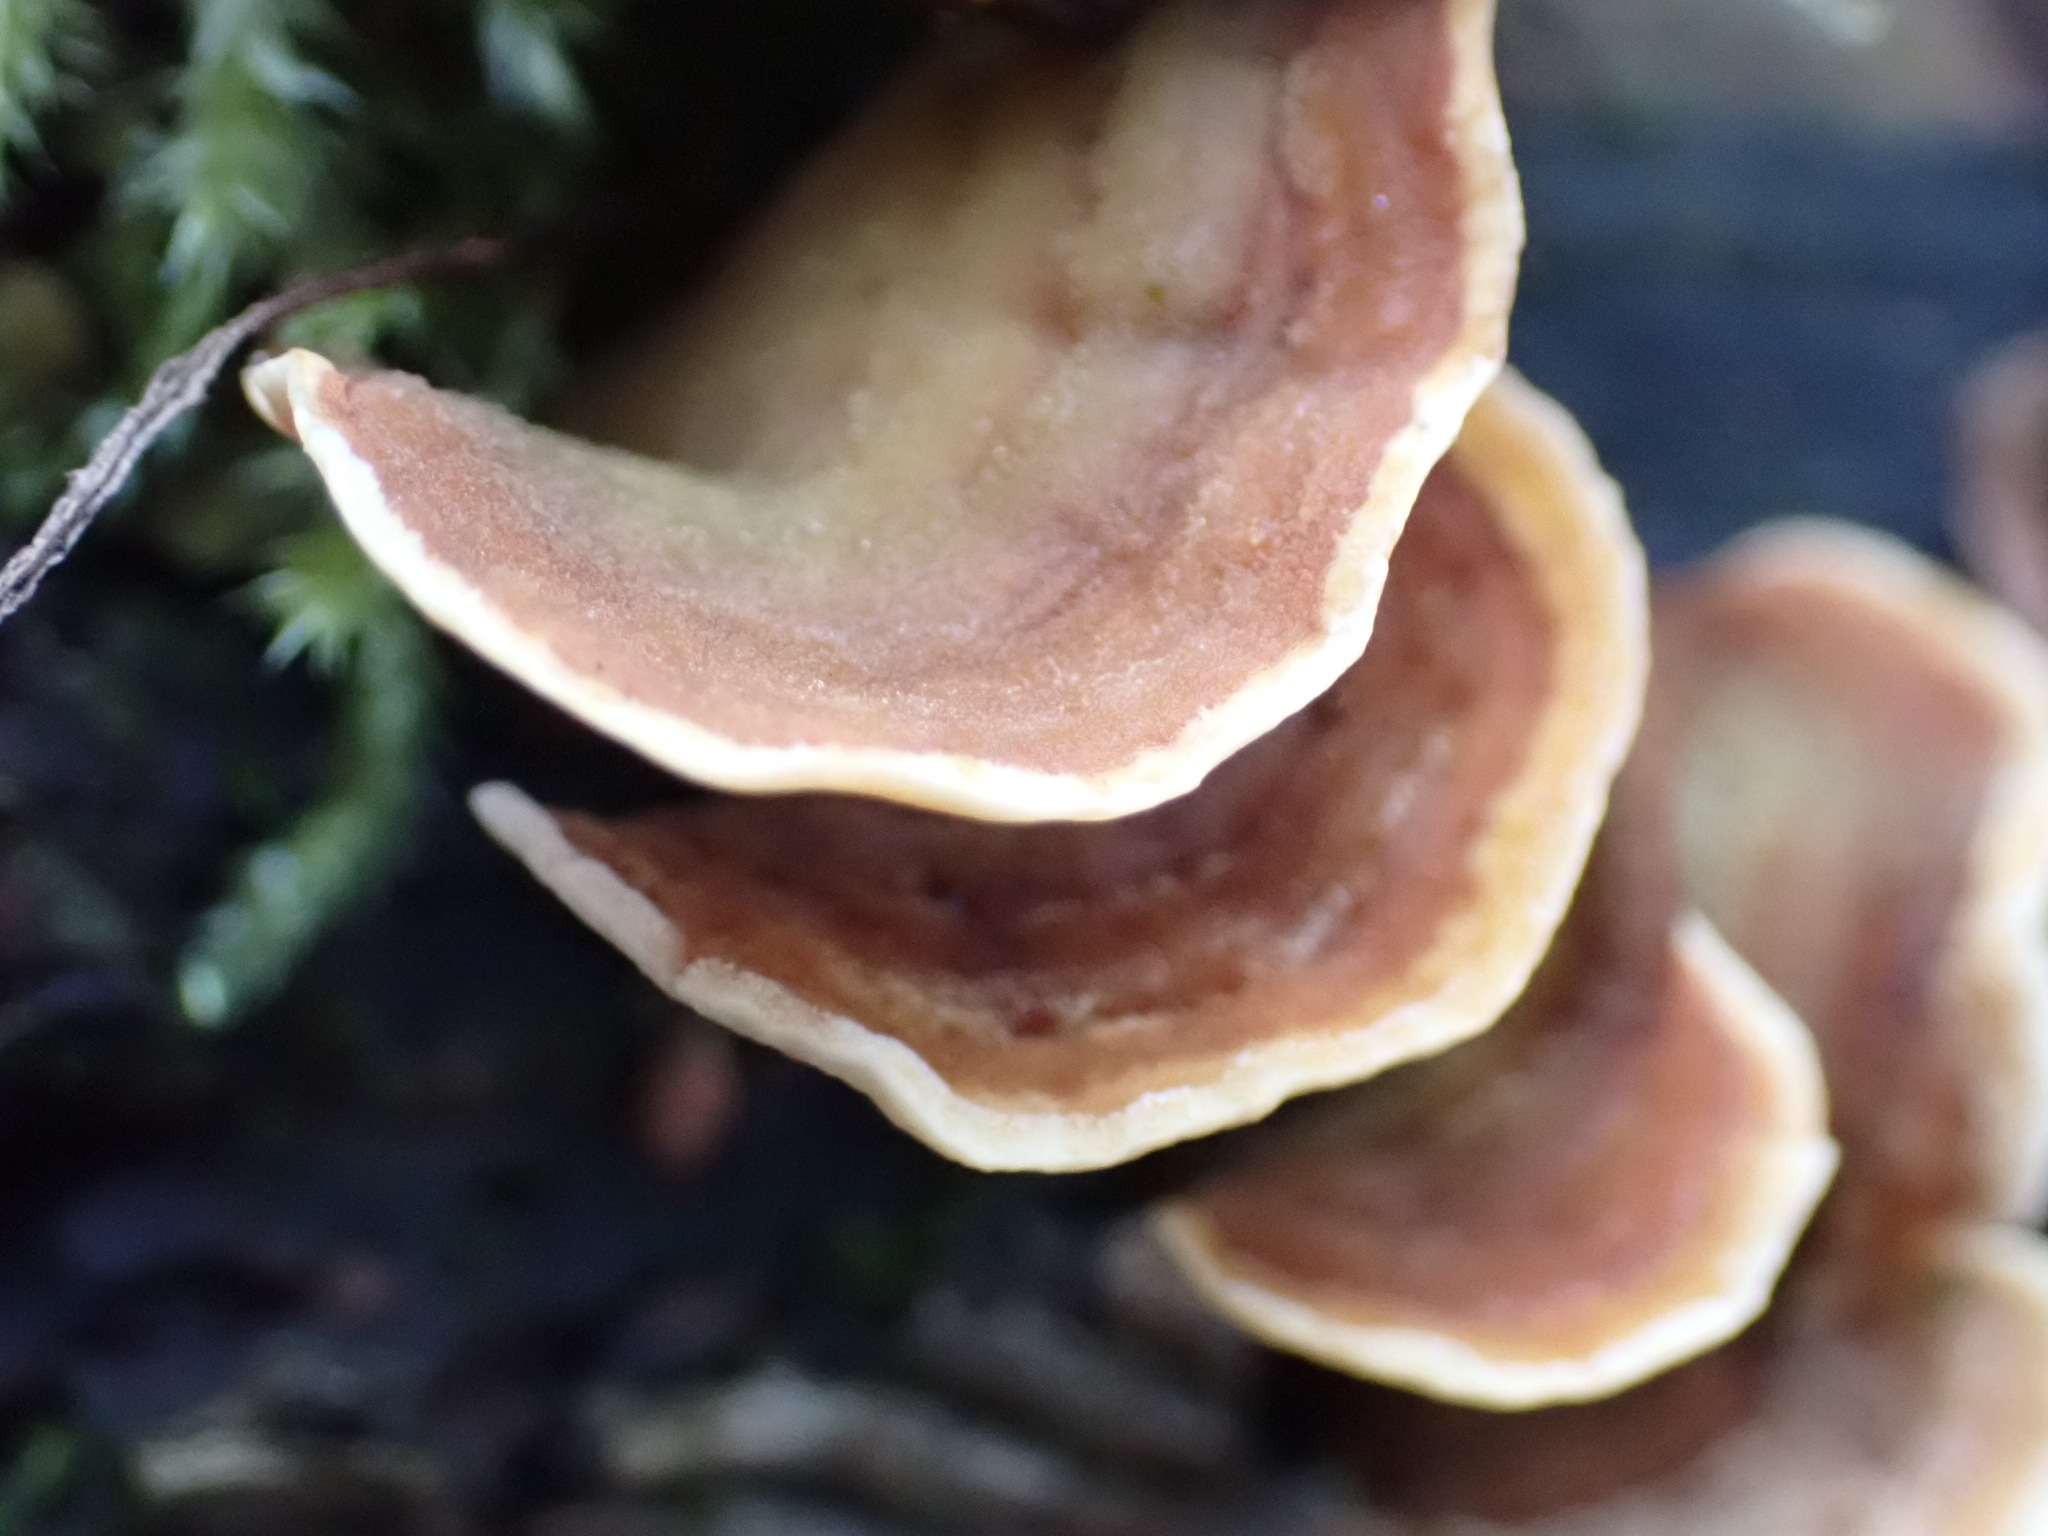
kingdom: Fungi
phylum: Basidiomycota
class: Agaricomycetes
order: Russulales
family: Stereaceae
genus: Stereum
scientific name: Stereum subtomentosum
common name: smuk lædersvamp
